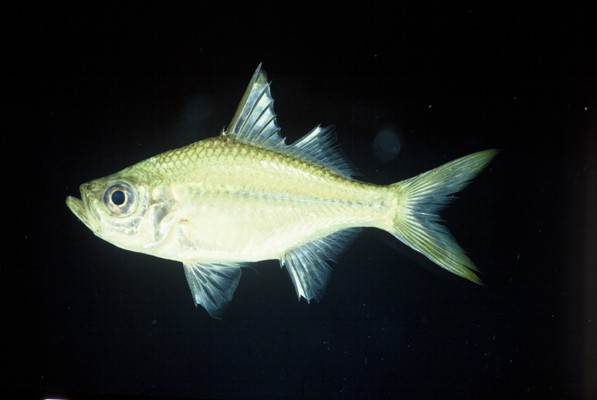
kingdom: Animalia
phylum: Chordata
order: Perciformes
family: Ambassidae
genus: Ambassis
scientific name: Ambassis ambassis
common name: Commerson's glassy perchlet
